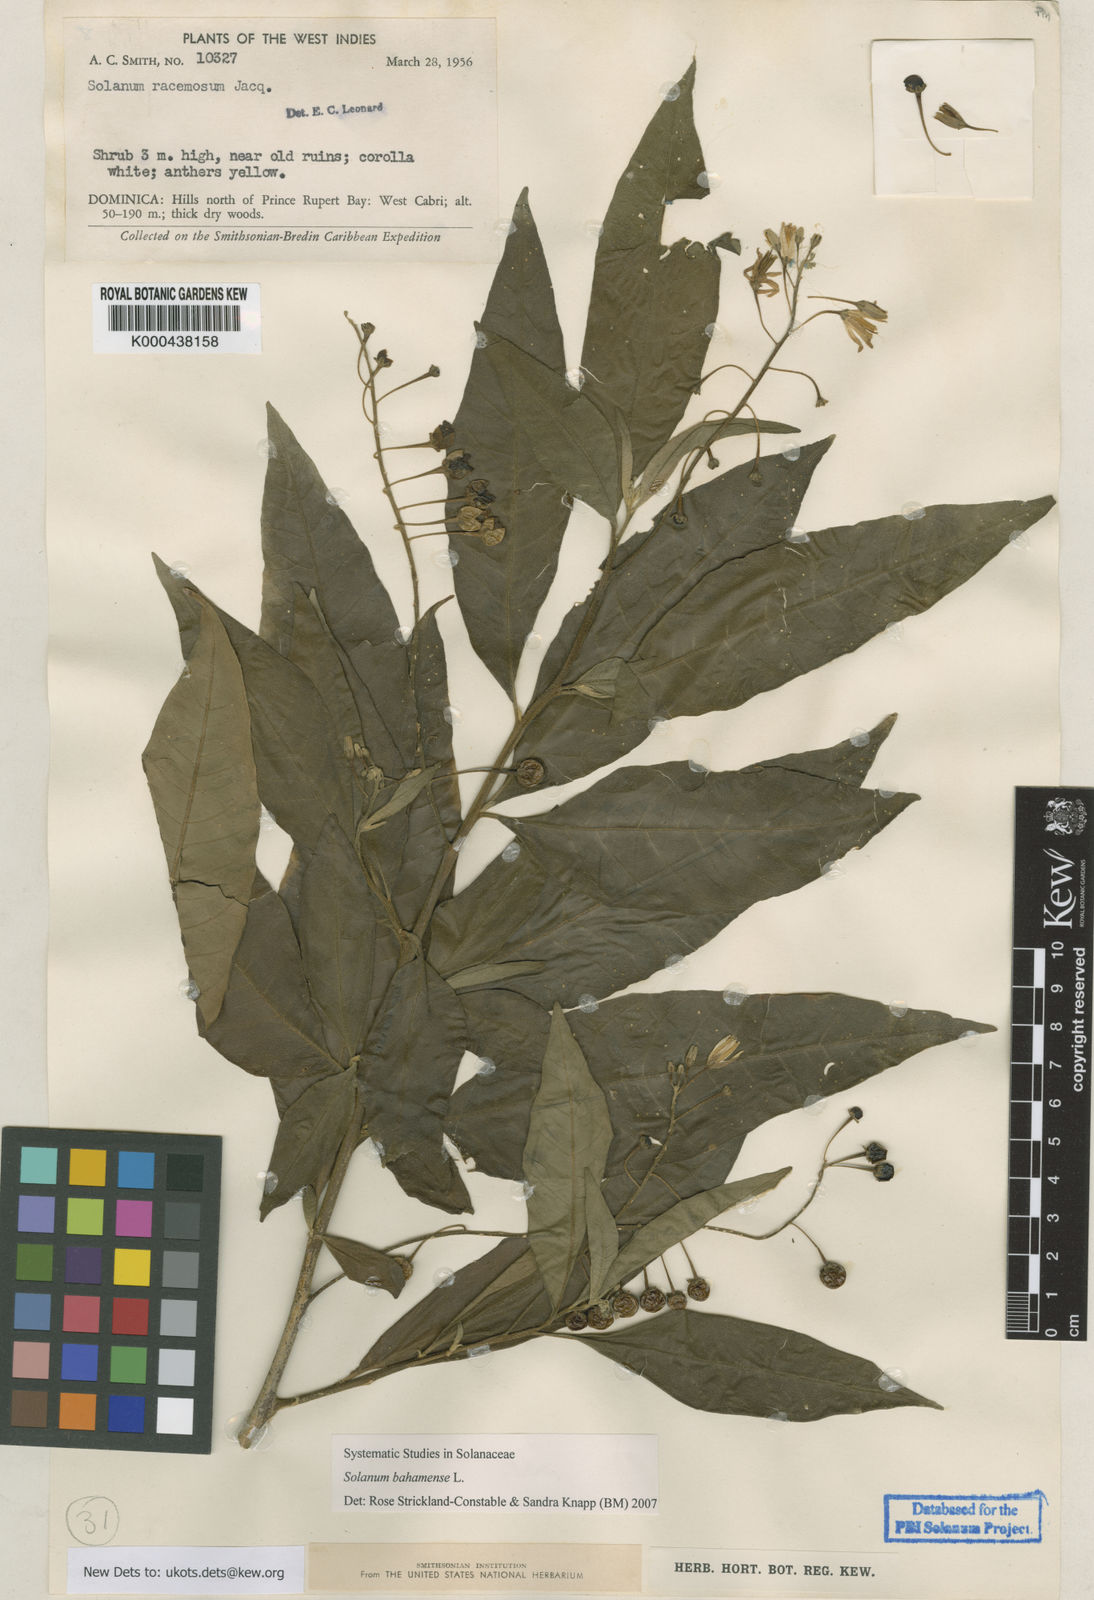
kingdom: Plantae
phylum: Tracheophyta
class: Magnoliopsida
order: Solanales
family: Solanaceae
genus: Solanum
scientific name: Solanum bahamense
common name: Canker-berry
